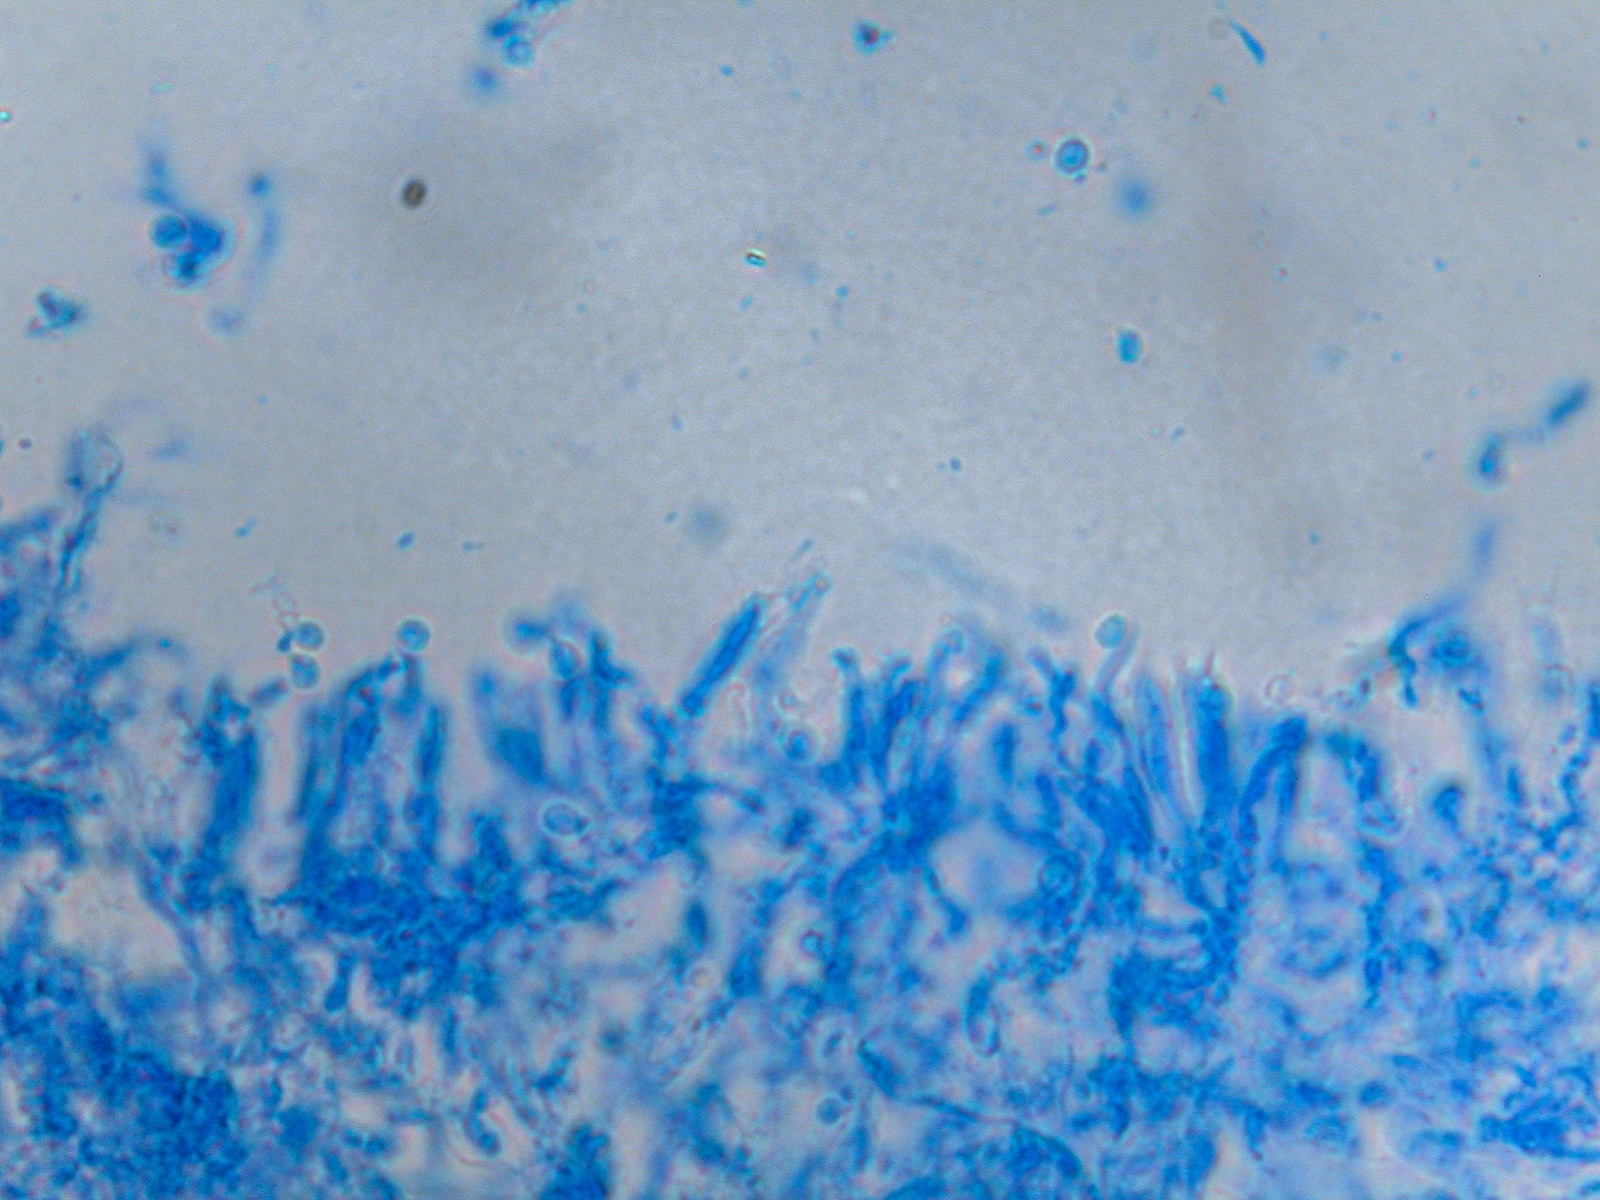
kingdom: Fungi
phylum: Basidiomycota
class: Agaricomycetes
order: Agaricales
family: Clavariaceae
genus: Ramariopsis
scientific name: Ramariopsis
